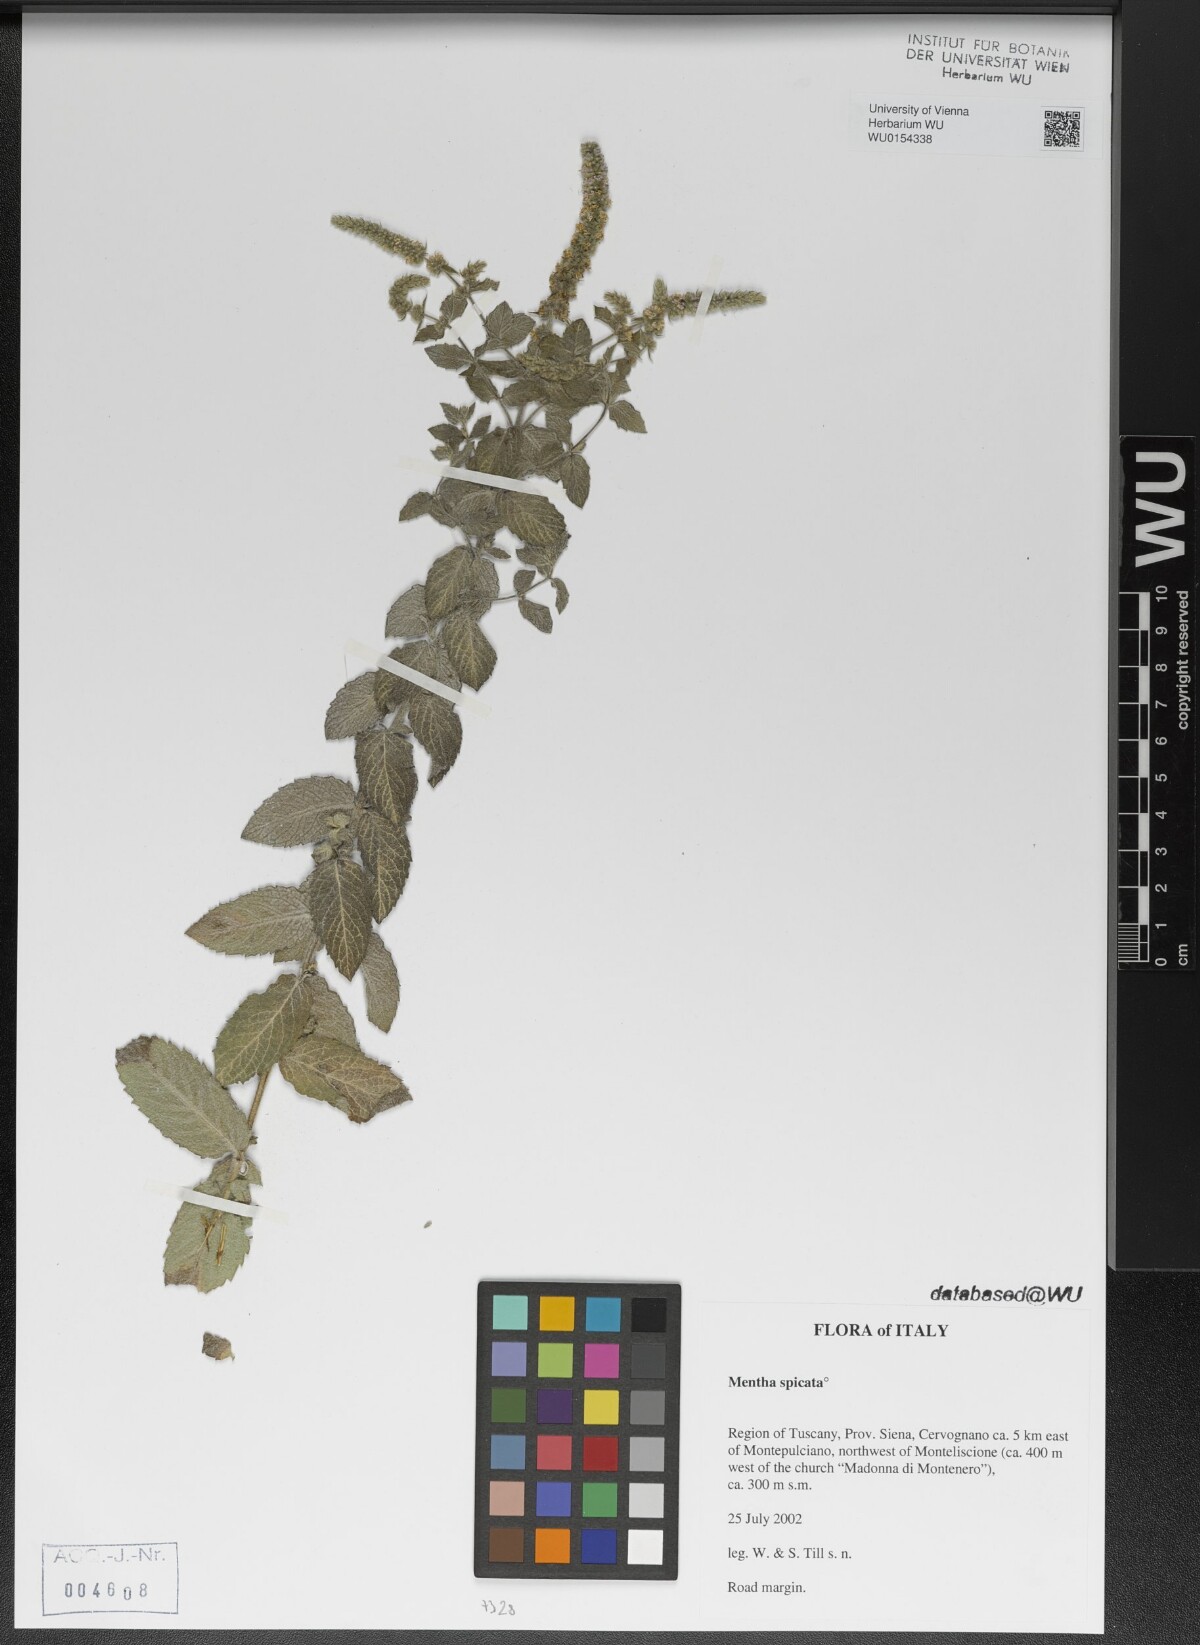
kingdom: Plantae
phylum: Tracheophyta
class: Magnoliopsida
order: Lamiales
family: Lamiaceae
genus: Mentha
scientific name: Mentha spicata
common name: Spearmint
